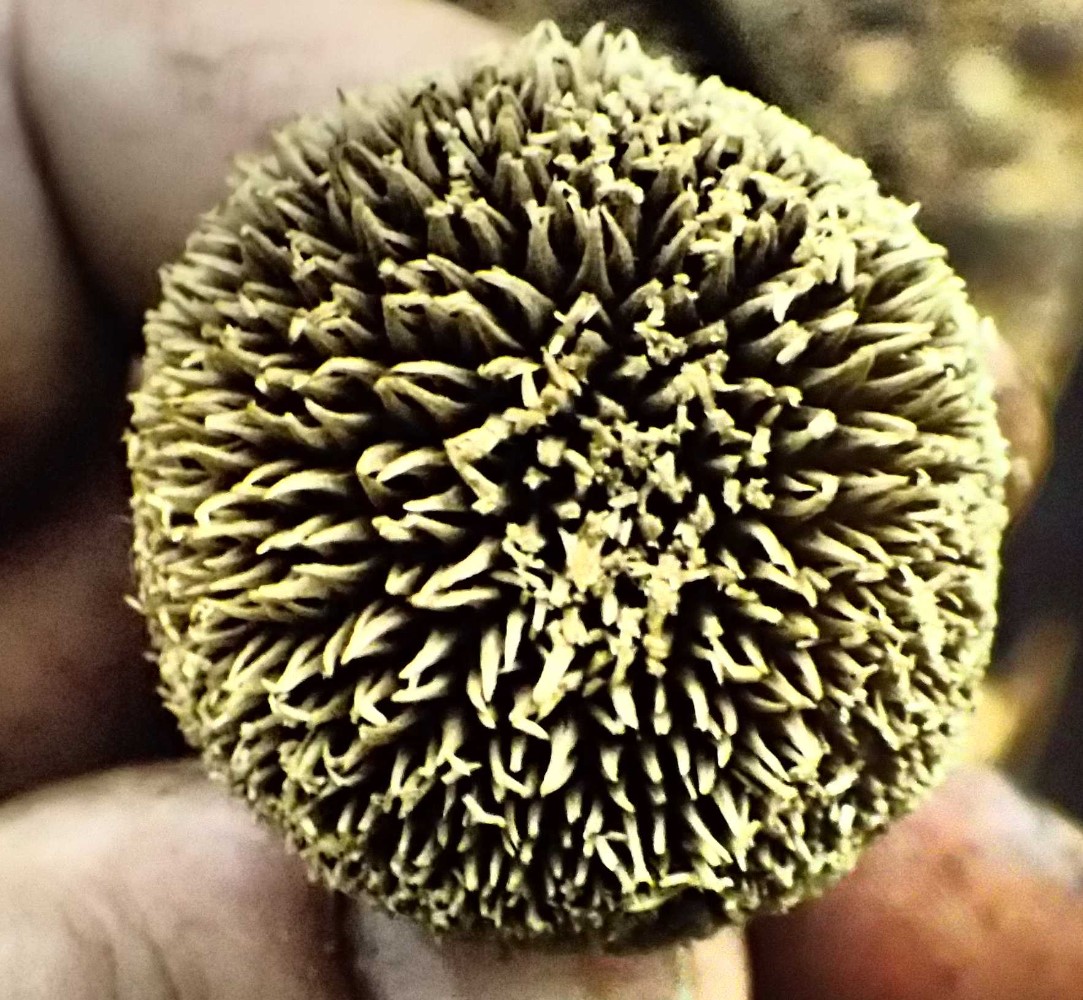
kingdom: Fungi
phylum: Basidiomycota
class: Agaricomycetes
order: Agaricales
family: Lycoperdaceae
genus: Lycoperdon
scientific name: Lycoperdon echinatum
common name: pindsvine-støvbold
